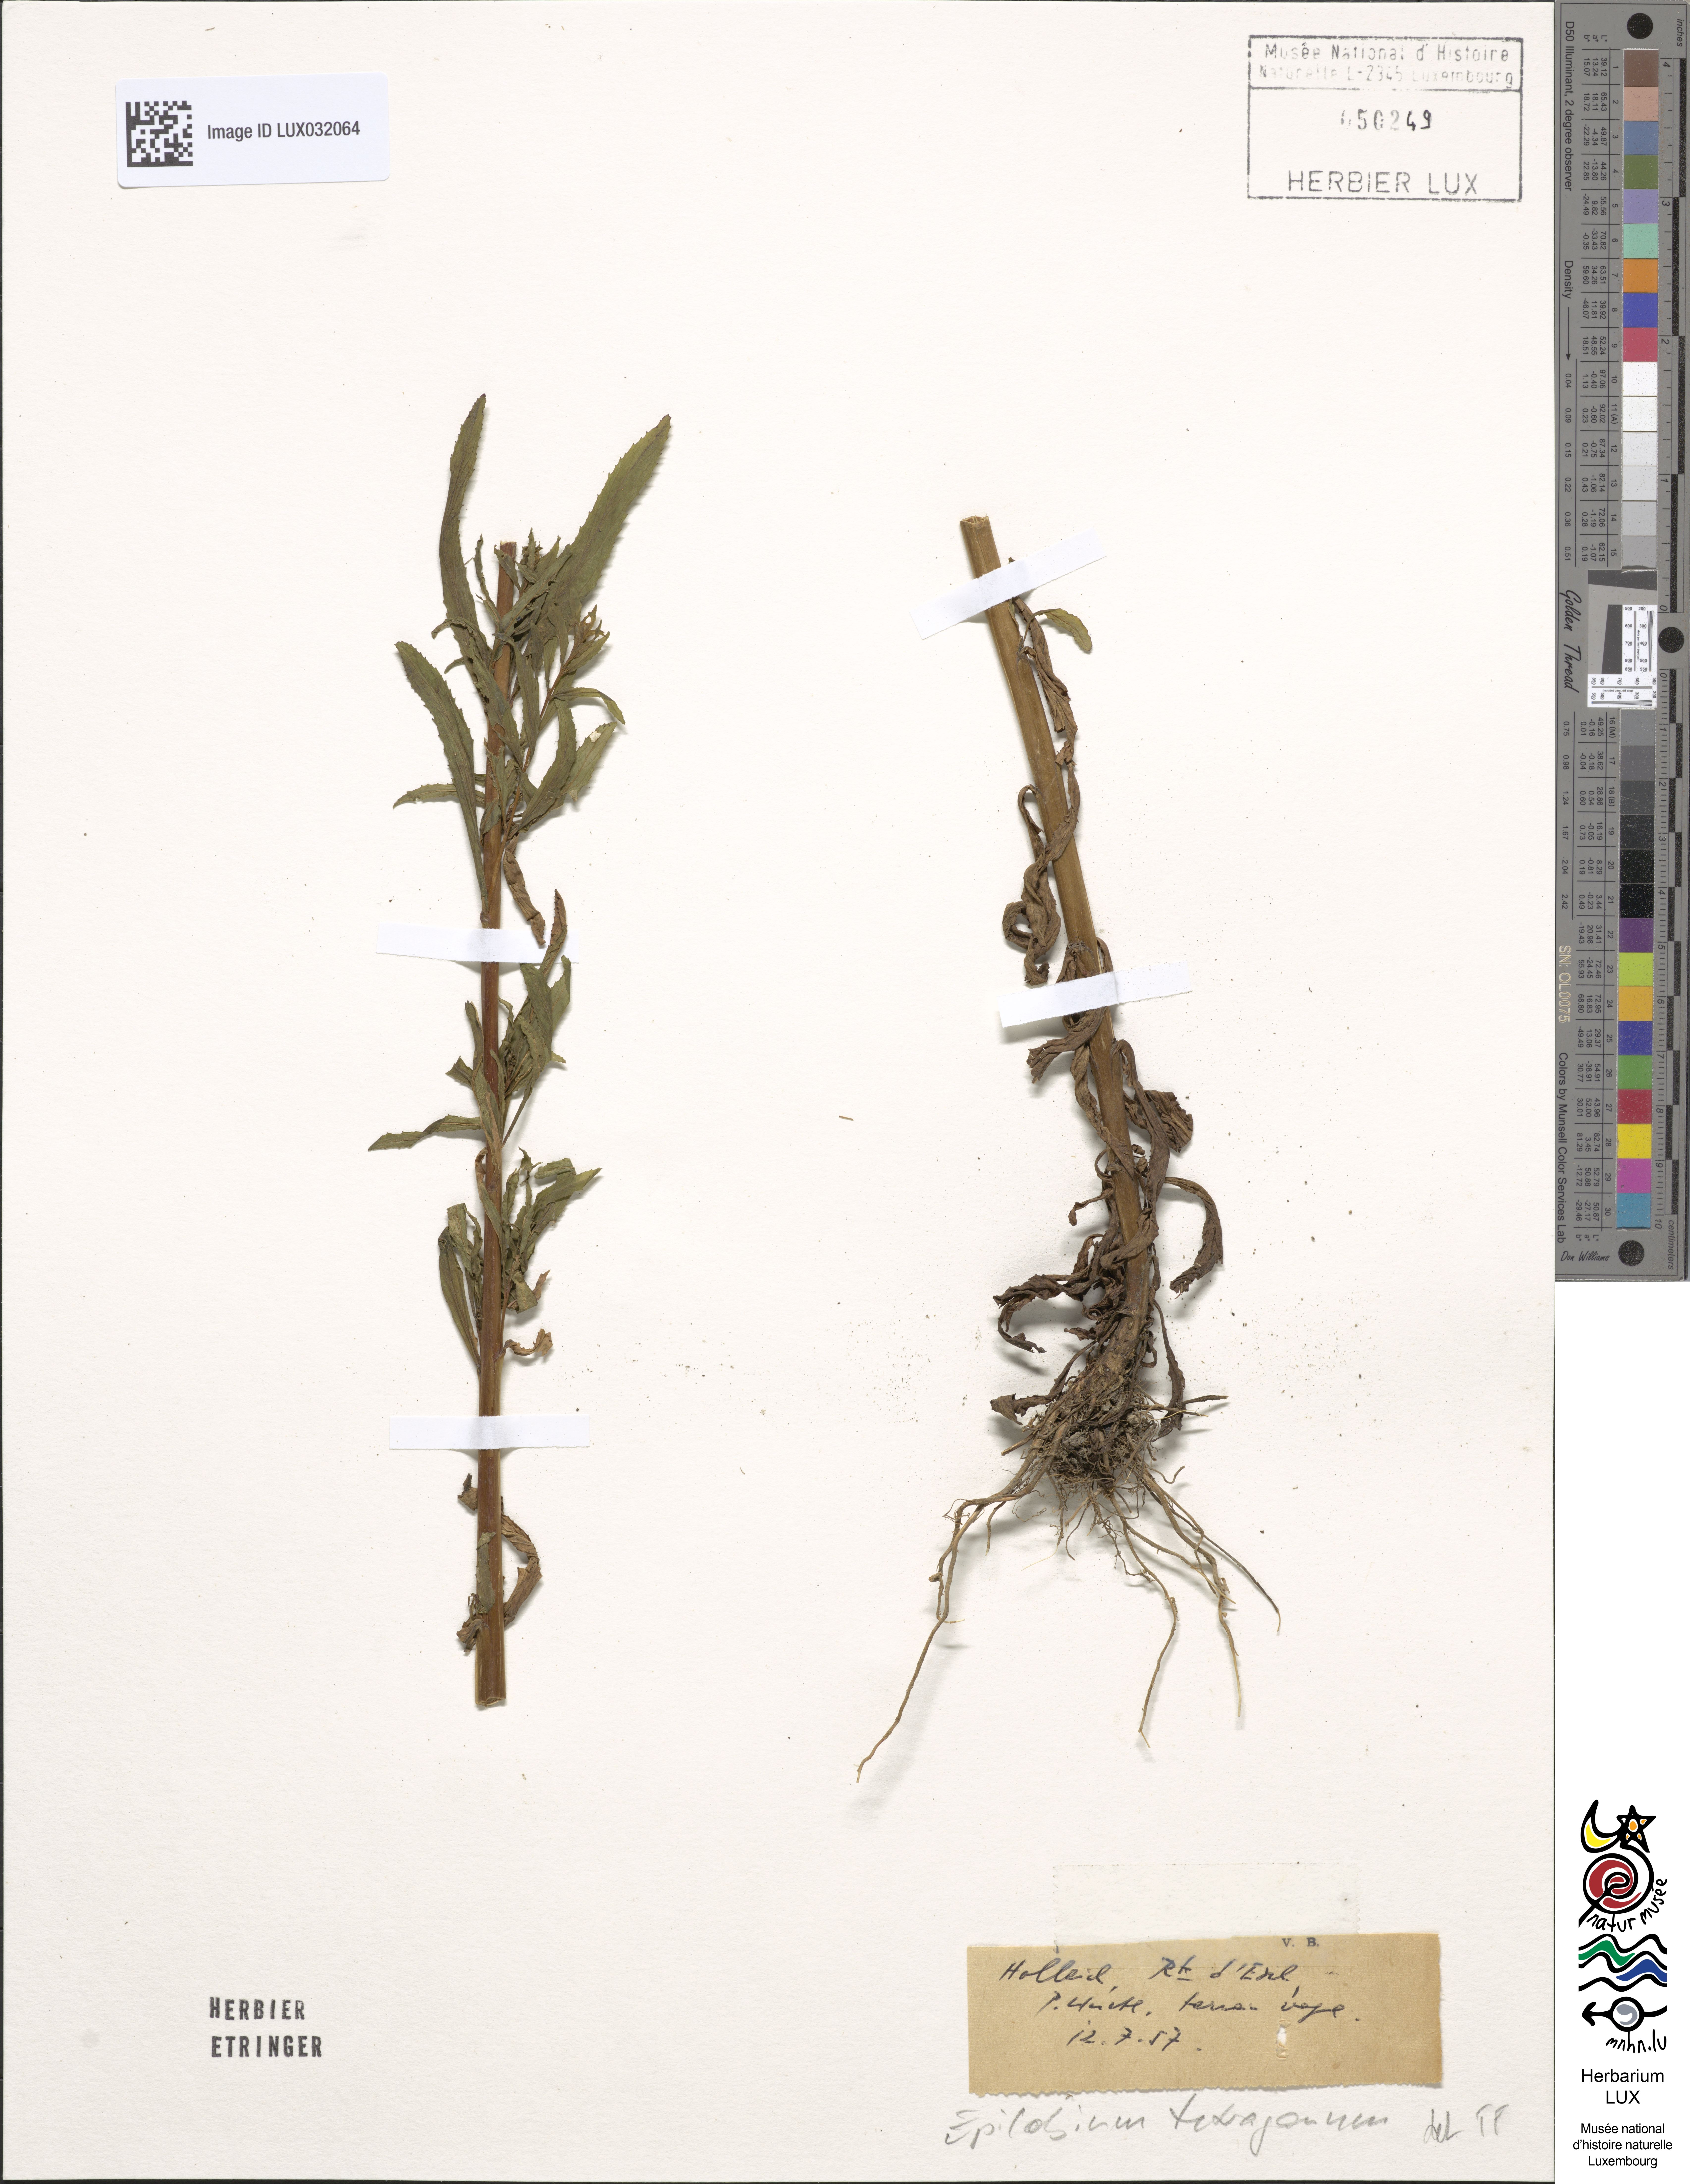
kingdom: Plantae
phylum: Tracheophyta
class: Magnoliopsida
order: Myrtales
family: Onagraceae
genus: Epilobium
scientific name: Epilobium tetragonum
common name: Square-stemmed willowherb
